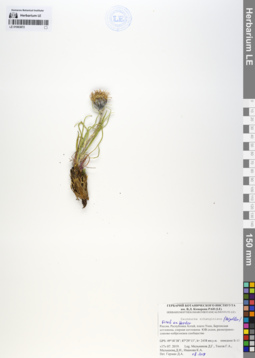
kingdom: Plantae
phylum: Tracheophyta
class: Magnoliopsida
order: Asterales
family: Asteraceae
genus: Saussurea
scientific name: Saussurea schanginiana
